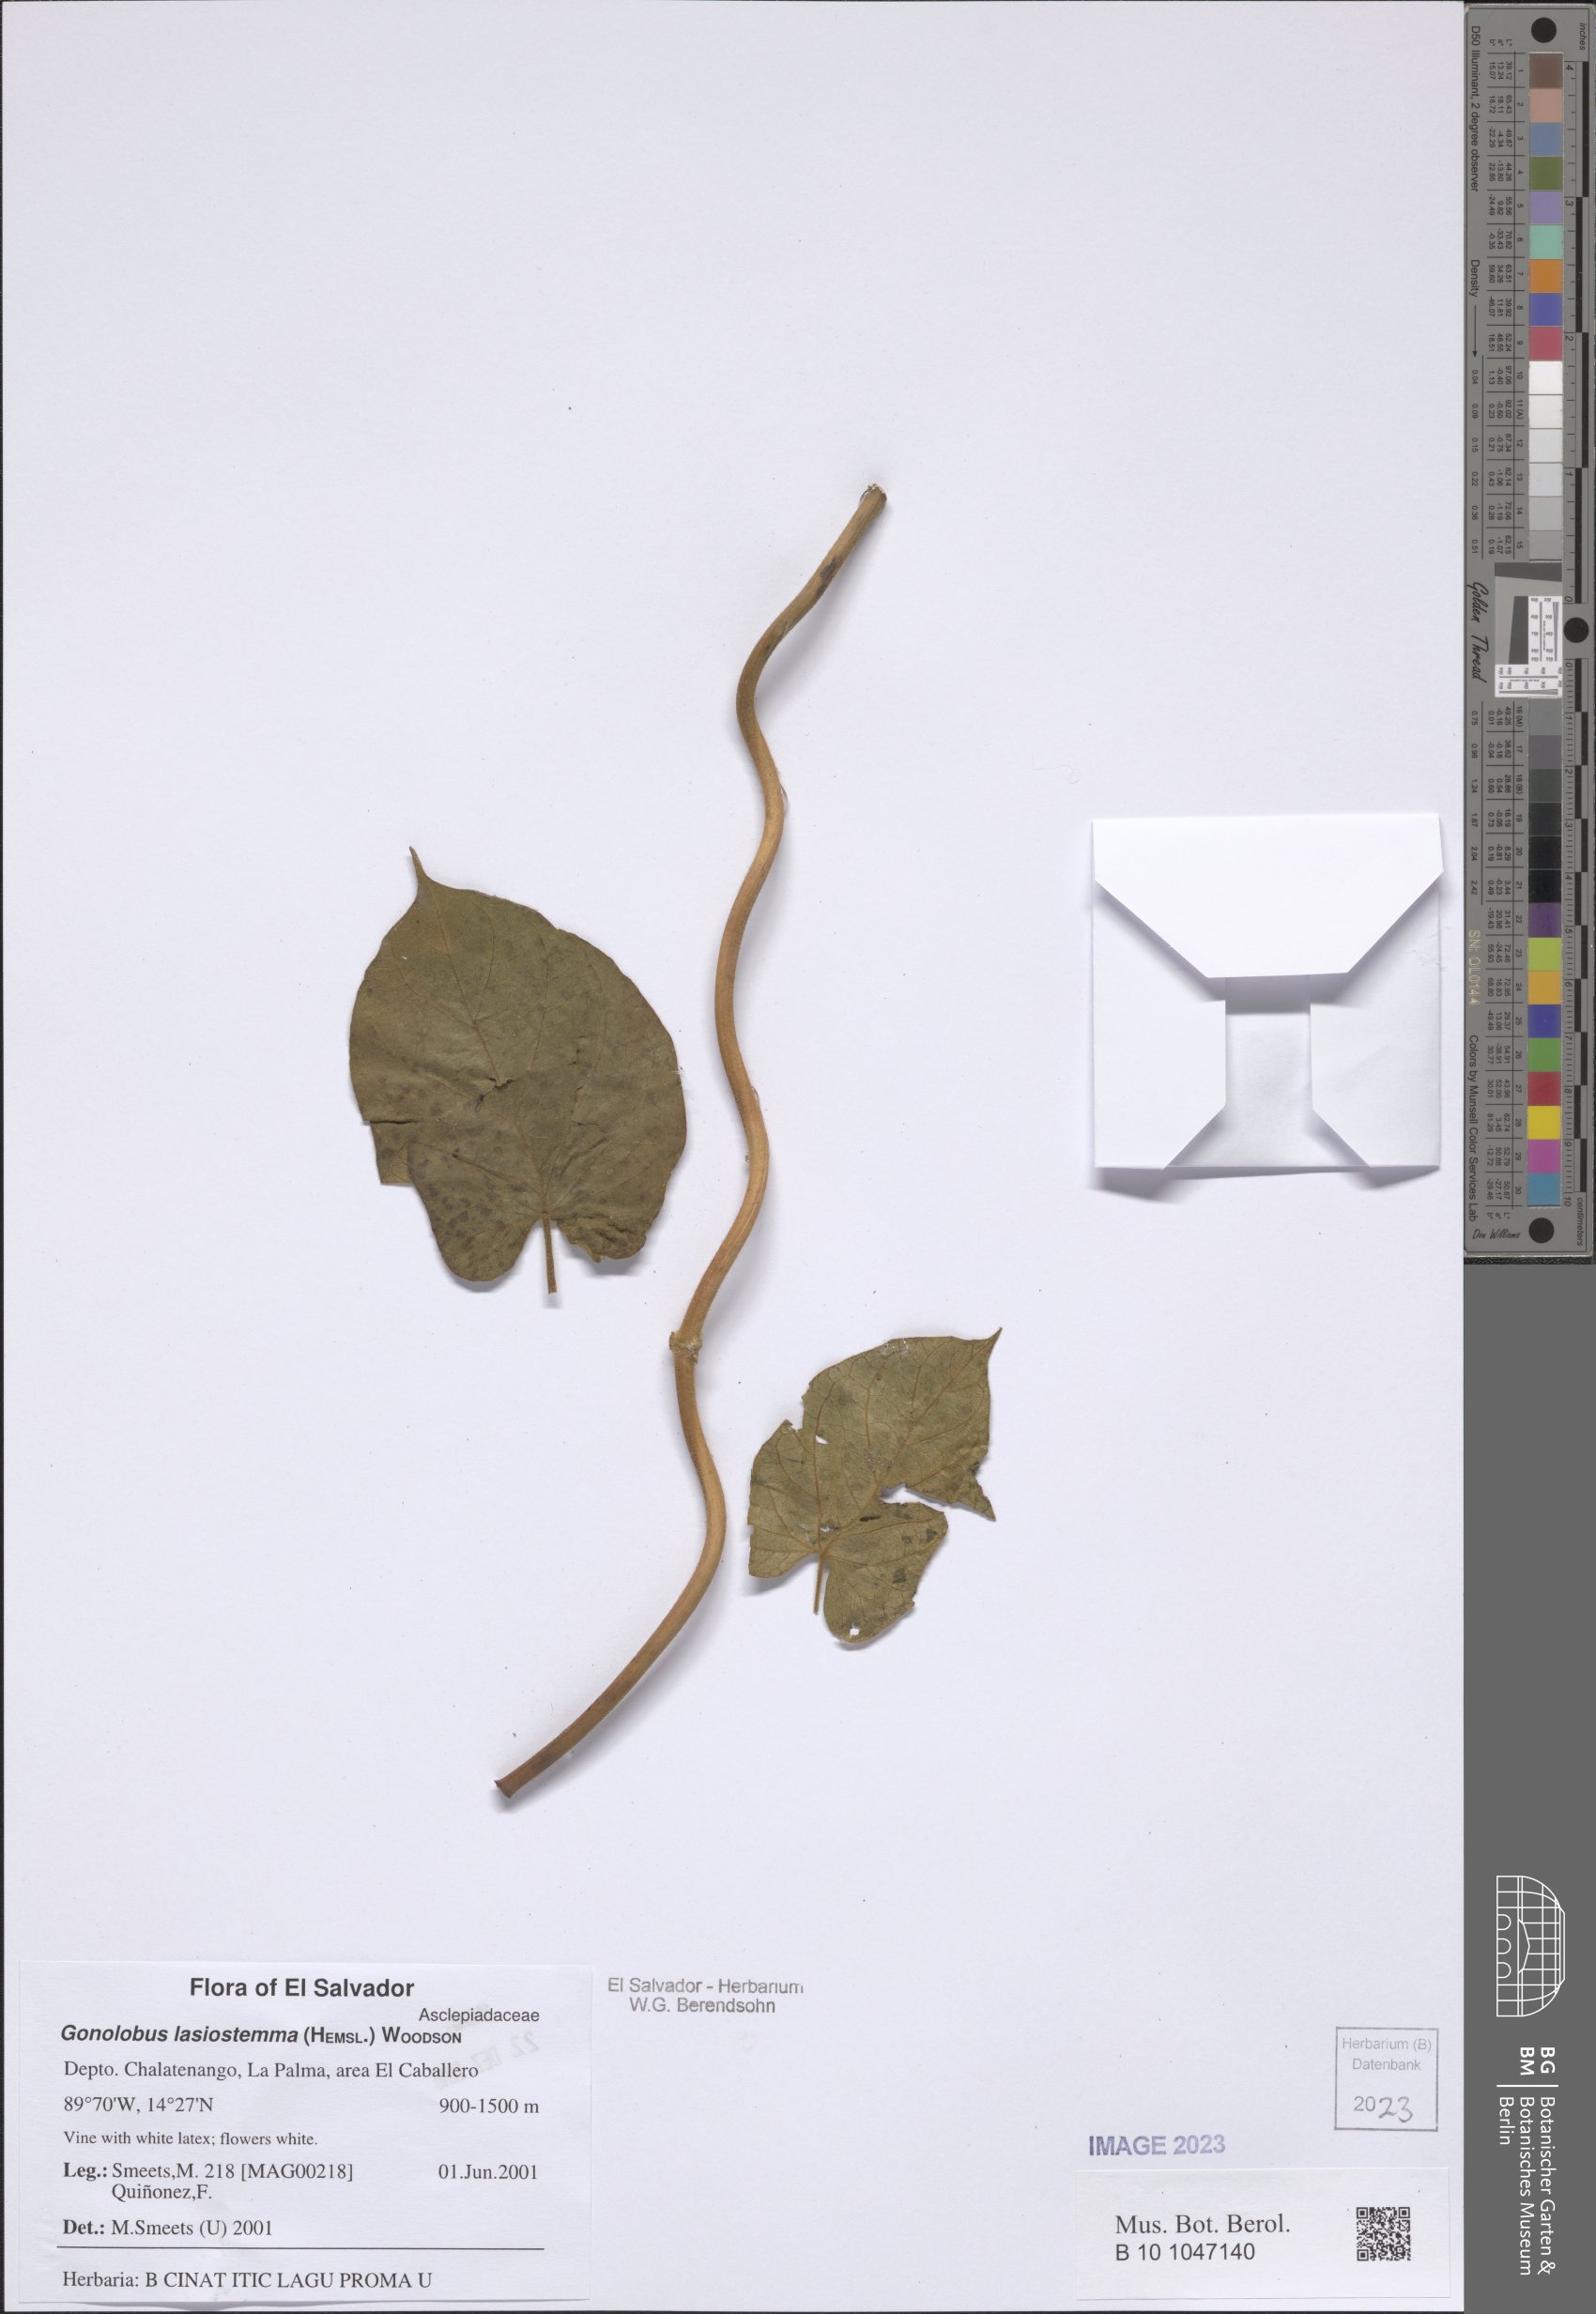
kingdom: Plantae
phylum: Tracheophyta
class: Magnoliopsida
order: Gentianales
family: Apocynaceae
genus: Gonolobus
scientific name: Gonolobus lasiostemma
